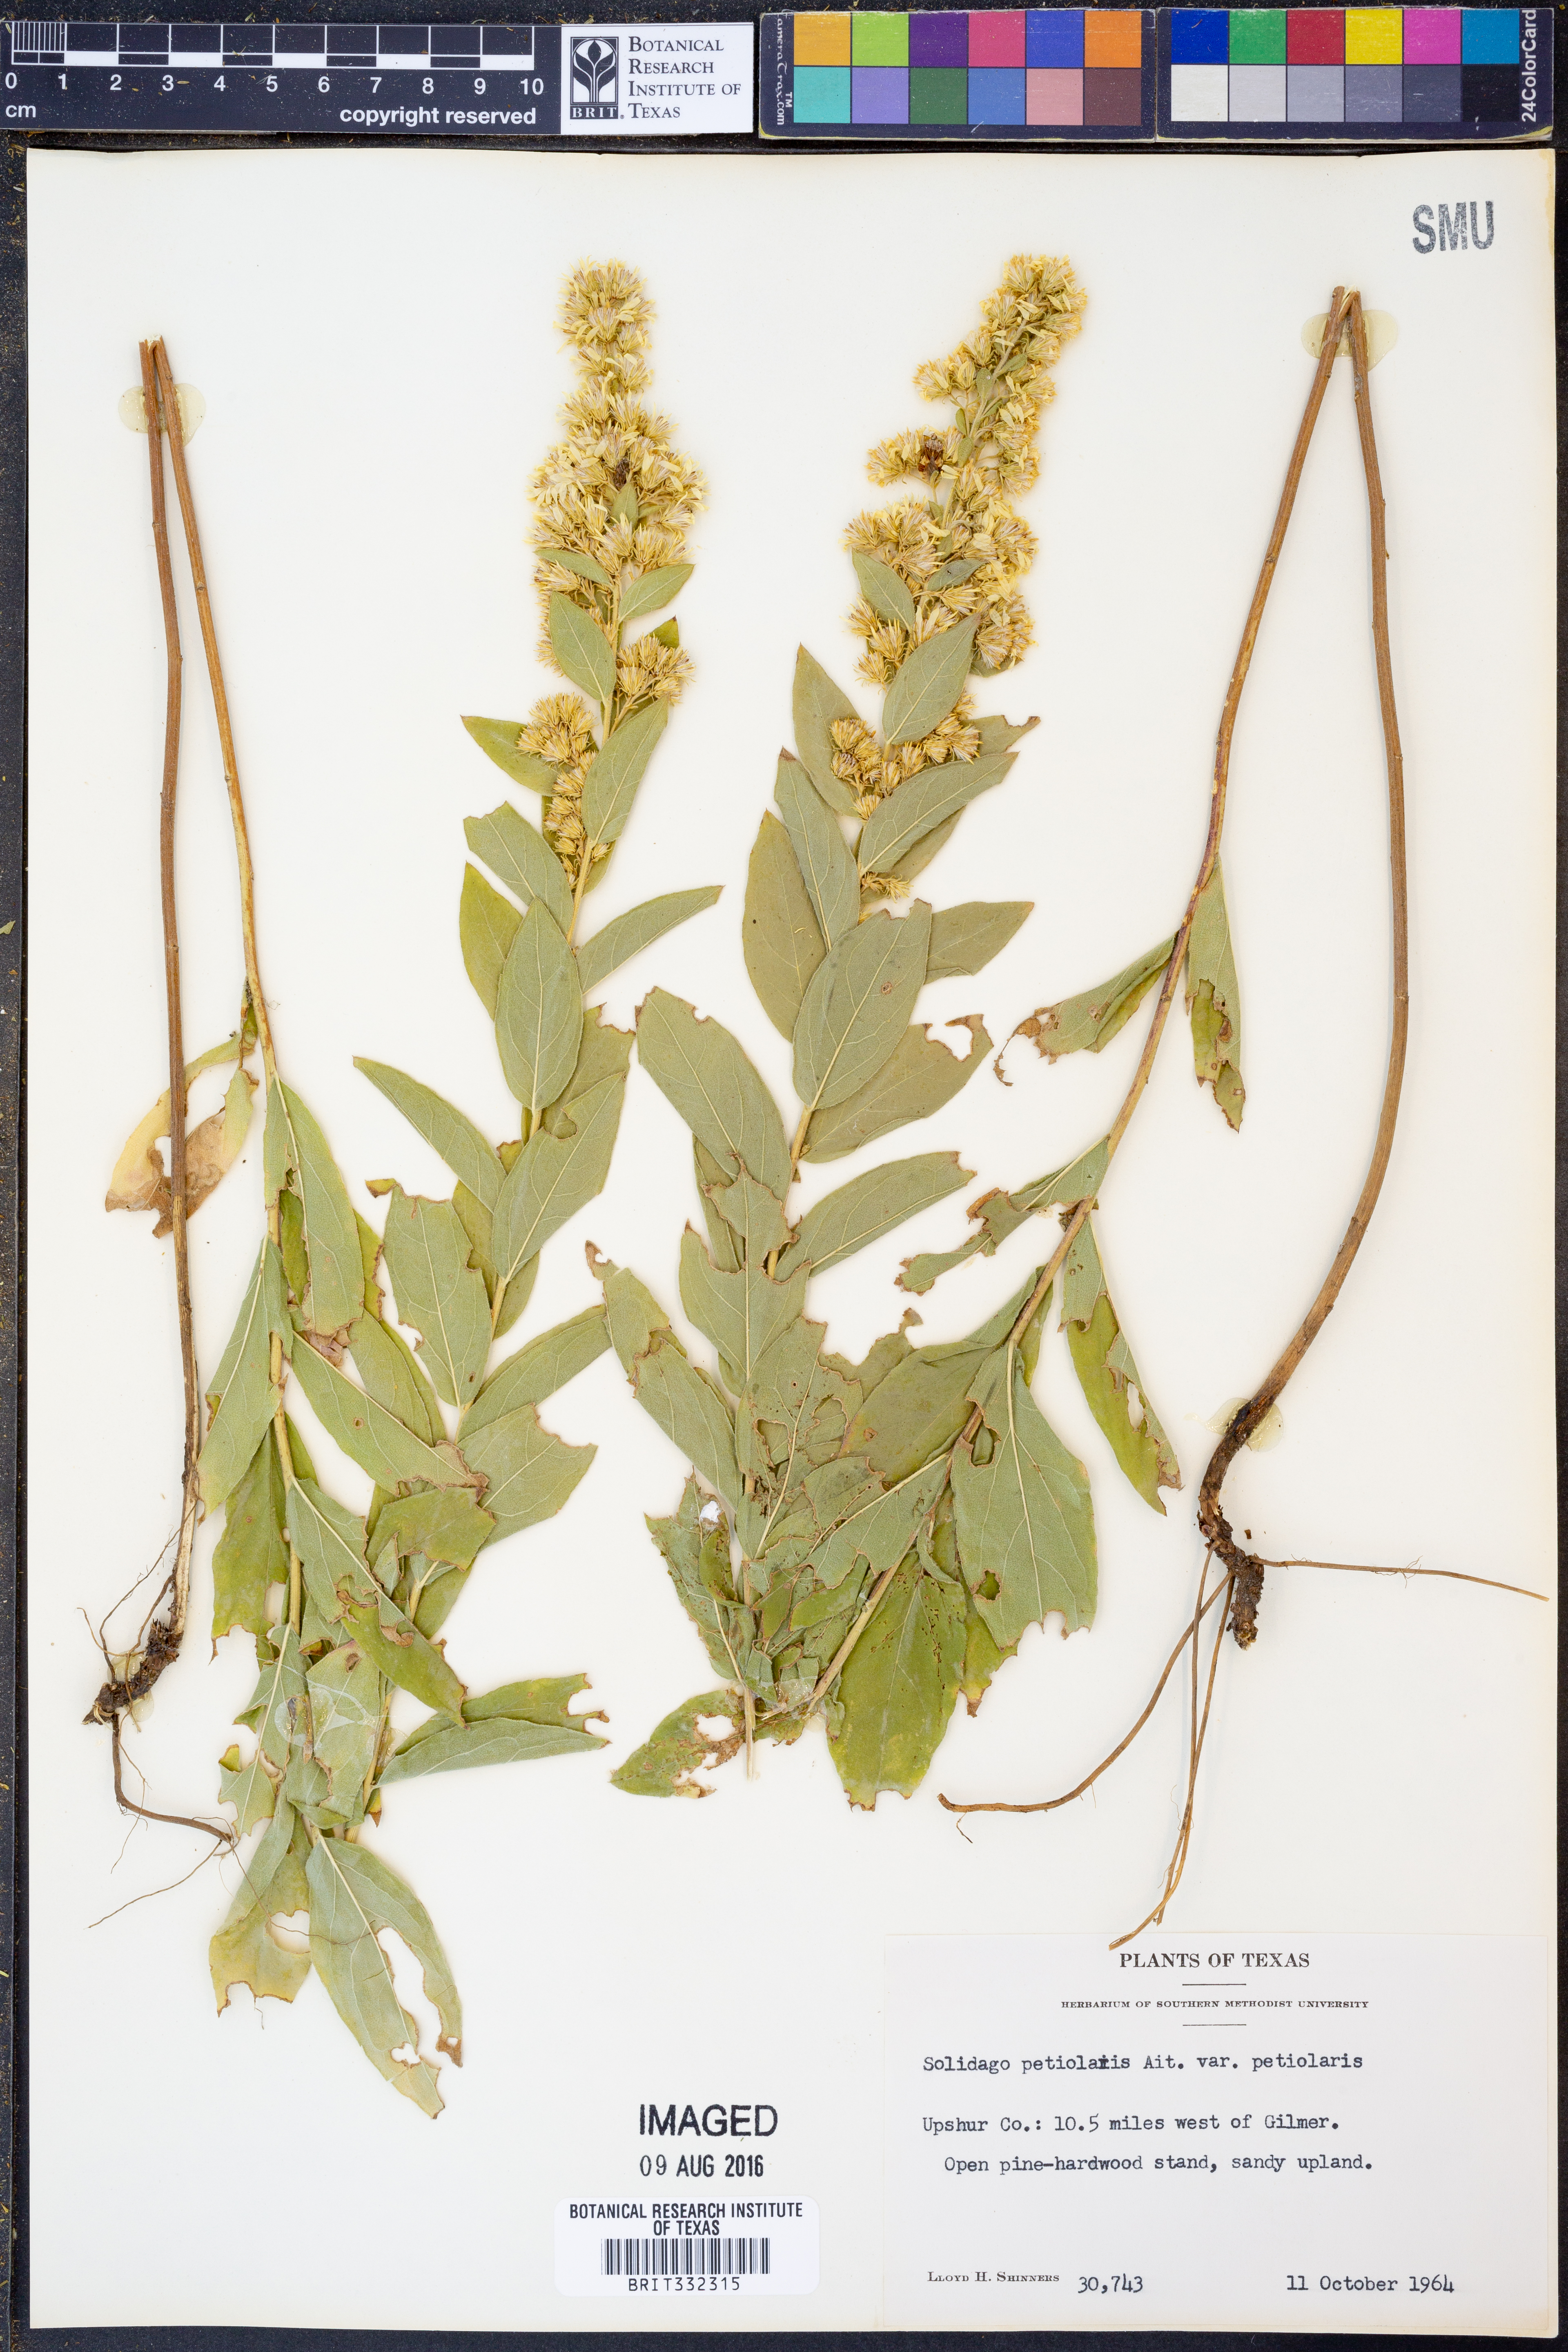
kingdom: Plantae
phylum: Tracheophyta
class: Magnoliopsida
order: Asterales
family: Asteraceae
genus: Solidago
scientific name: Solidago petiolaris
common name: Downy ragged goldenrod
